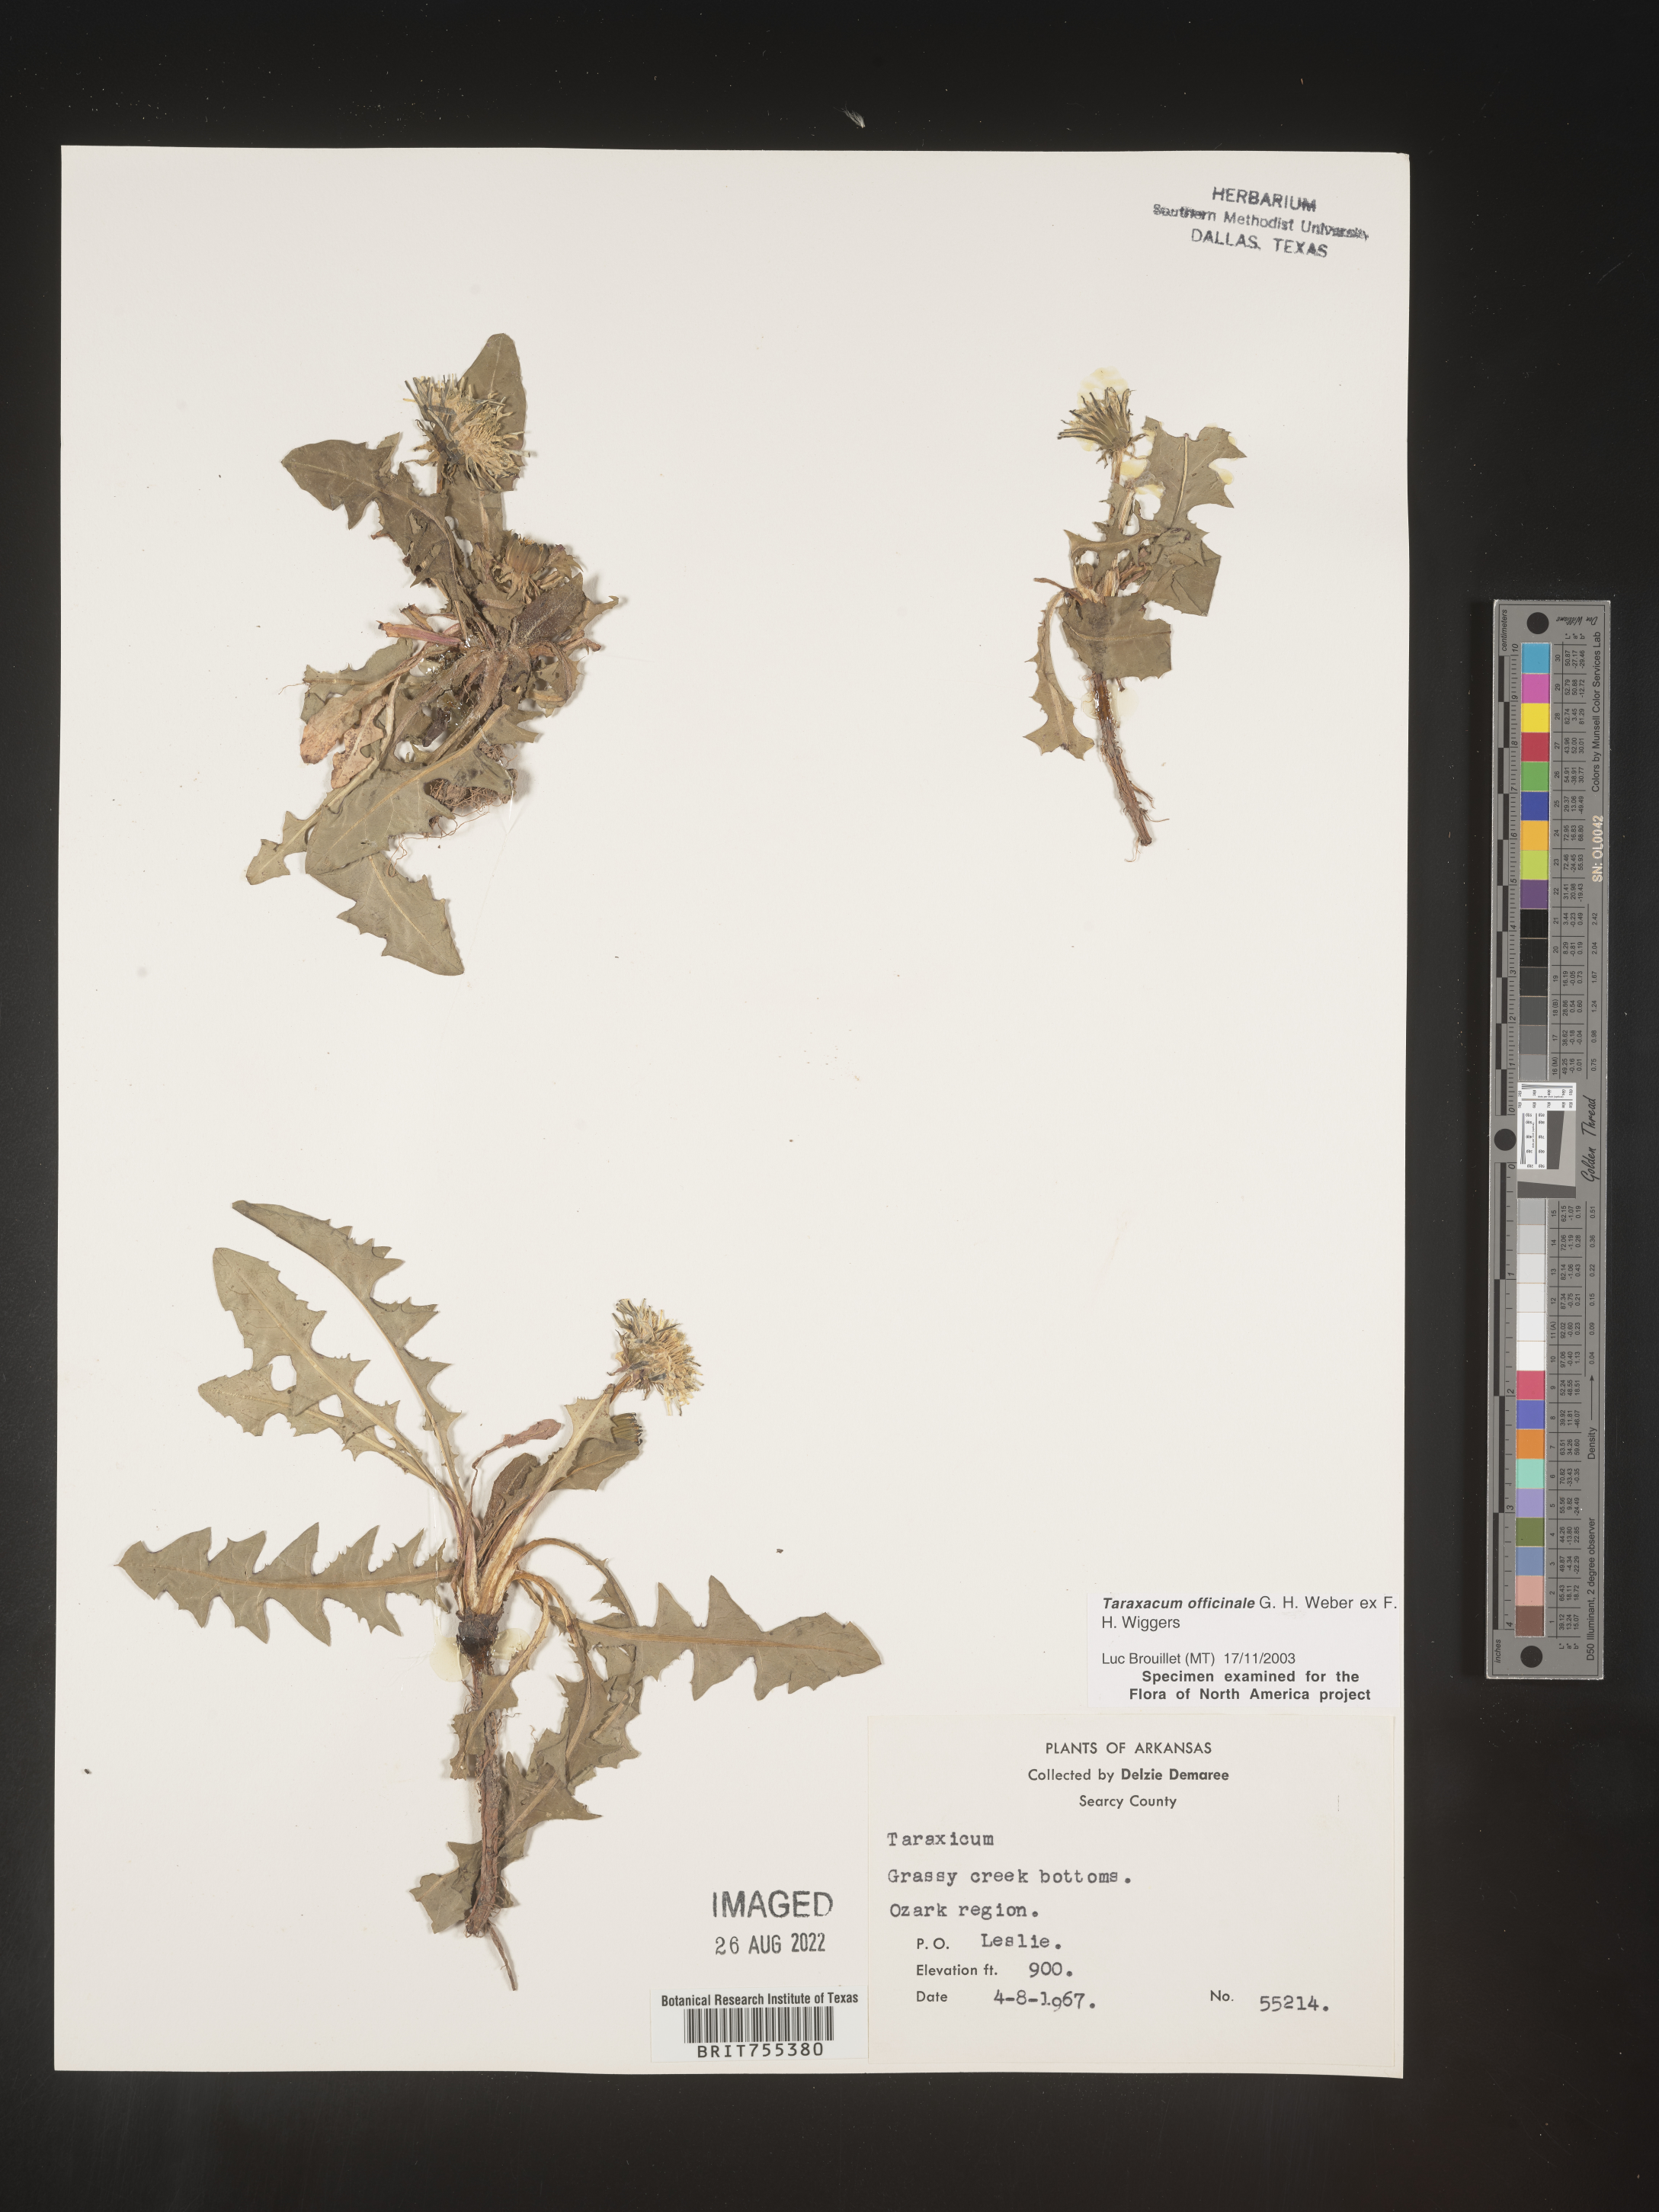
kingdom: Plantae
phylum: Tracheophyta
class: Magnoliopsida
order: Asterales
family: Asteraceae
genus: Taraxacum
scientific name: Taraxacum officinale
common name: Common dandelion
